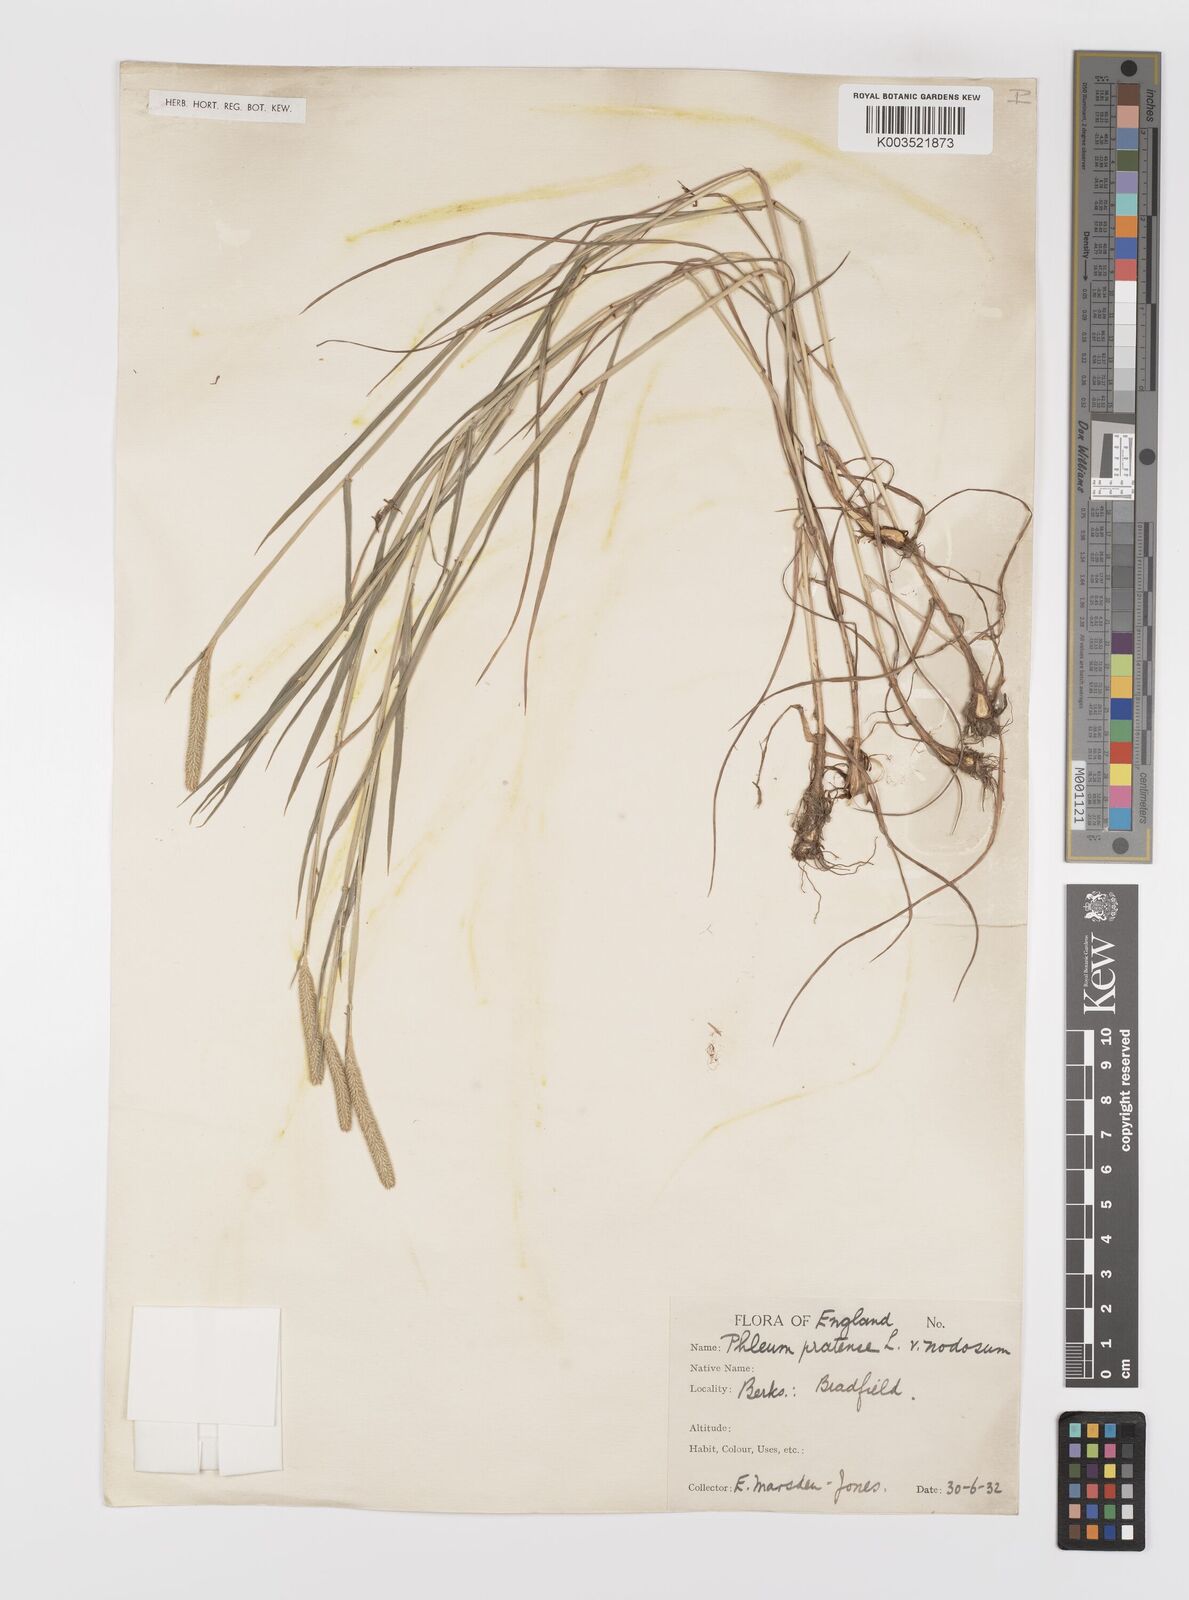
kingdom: Plantae
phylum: Tracheophyta
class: Liliopsida
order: Poales
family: Poaceae
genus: Phleum
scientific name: Phleum bertolonii
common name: Smaller cat's-tail
